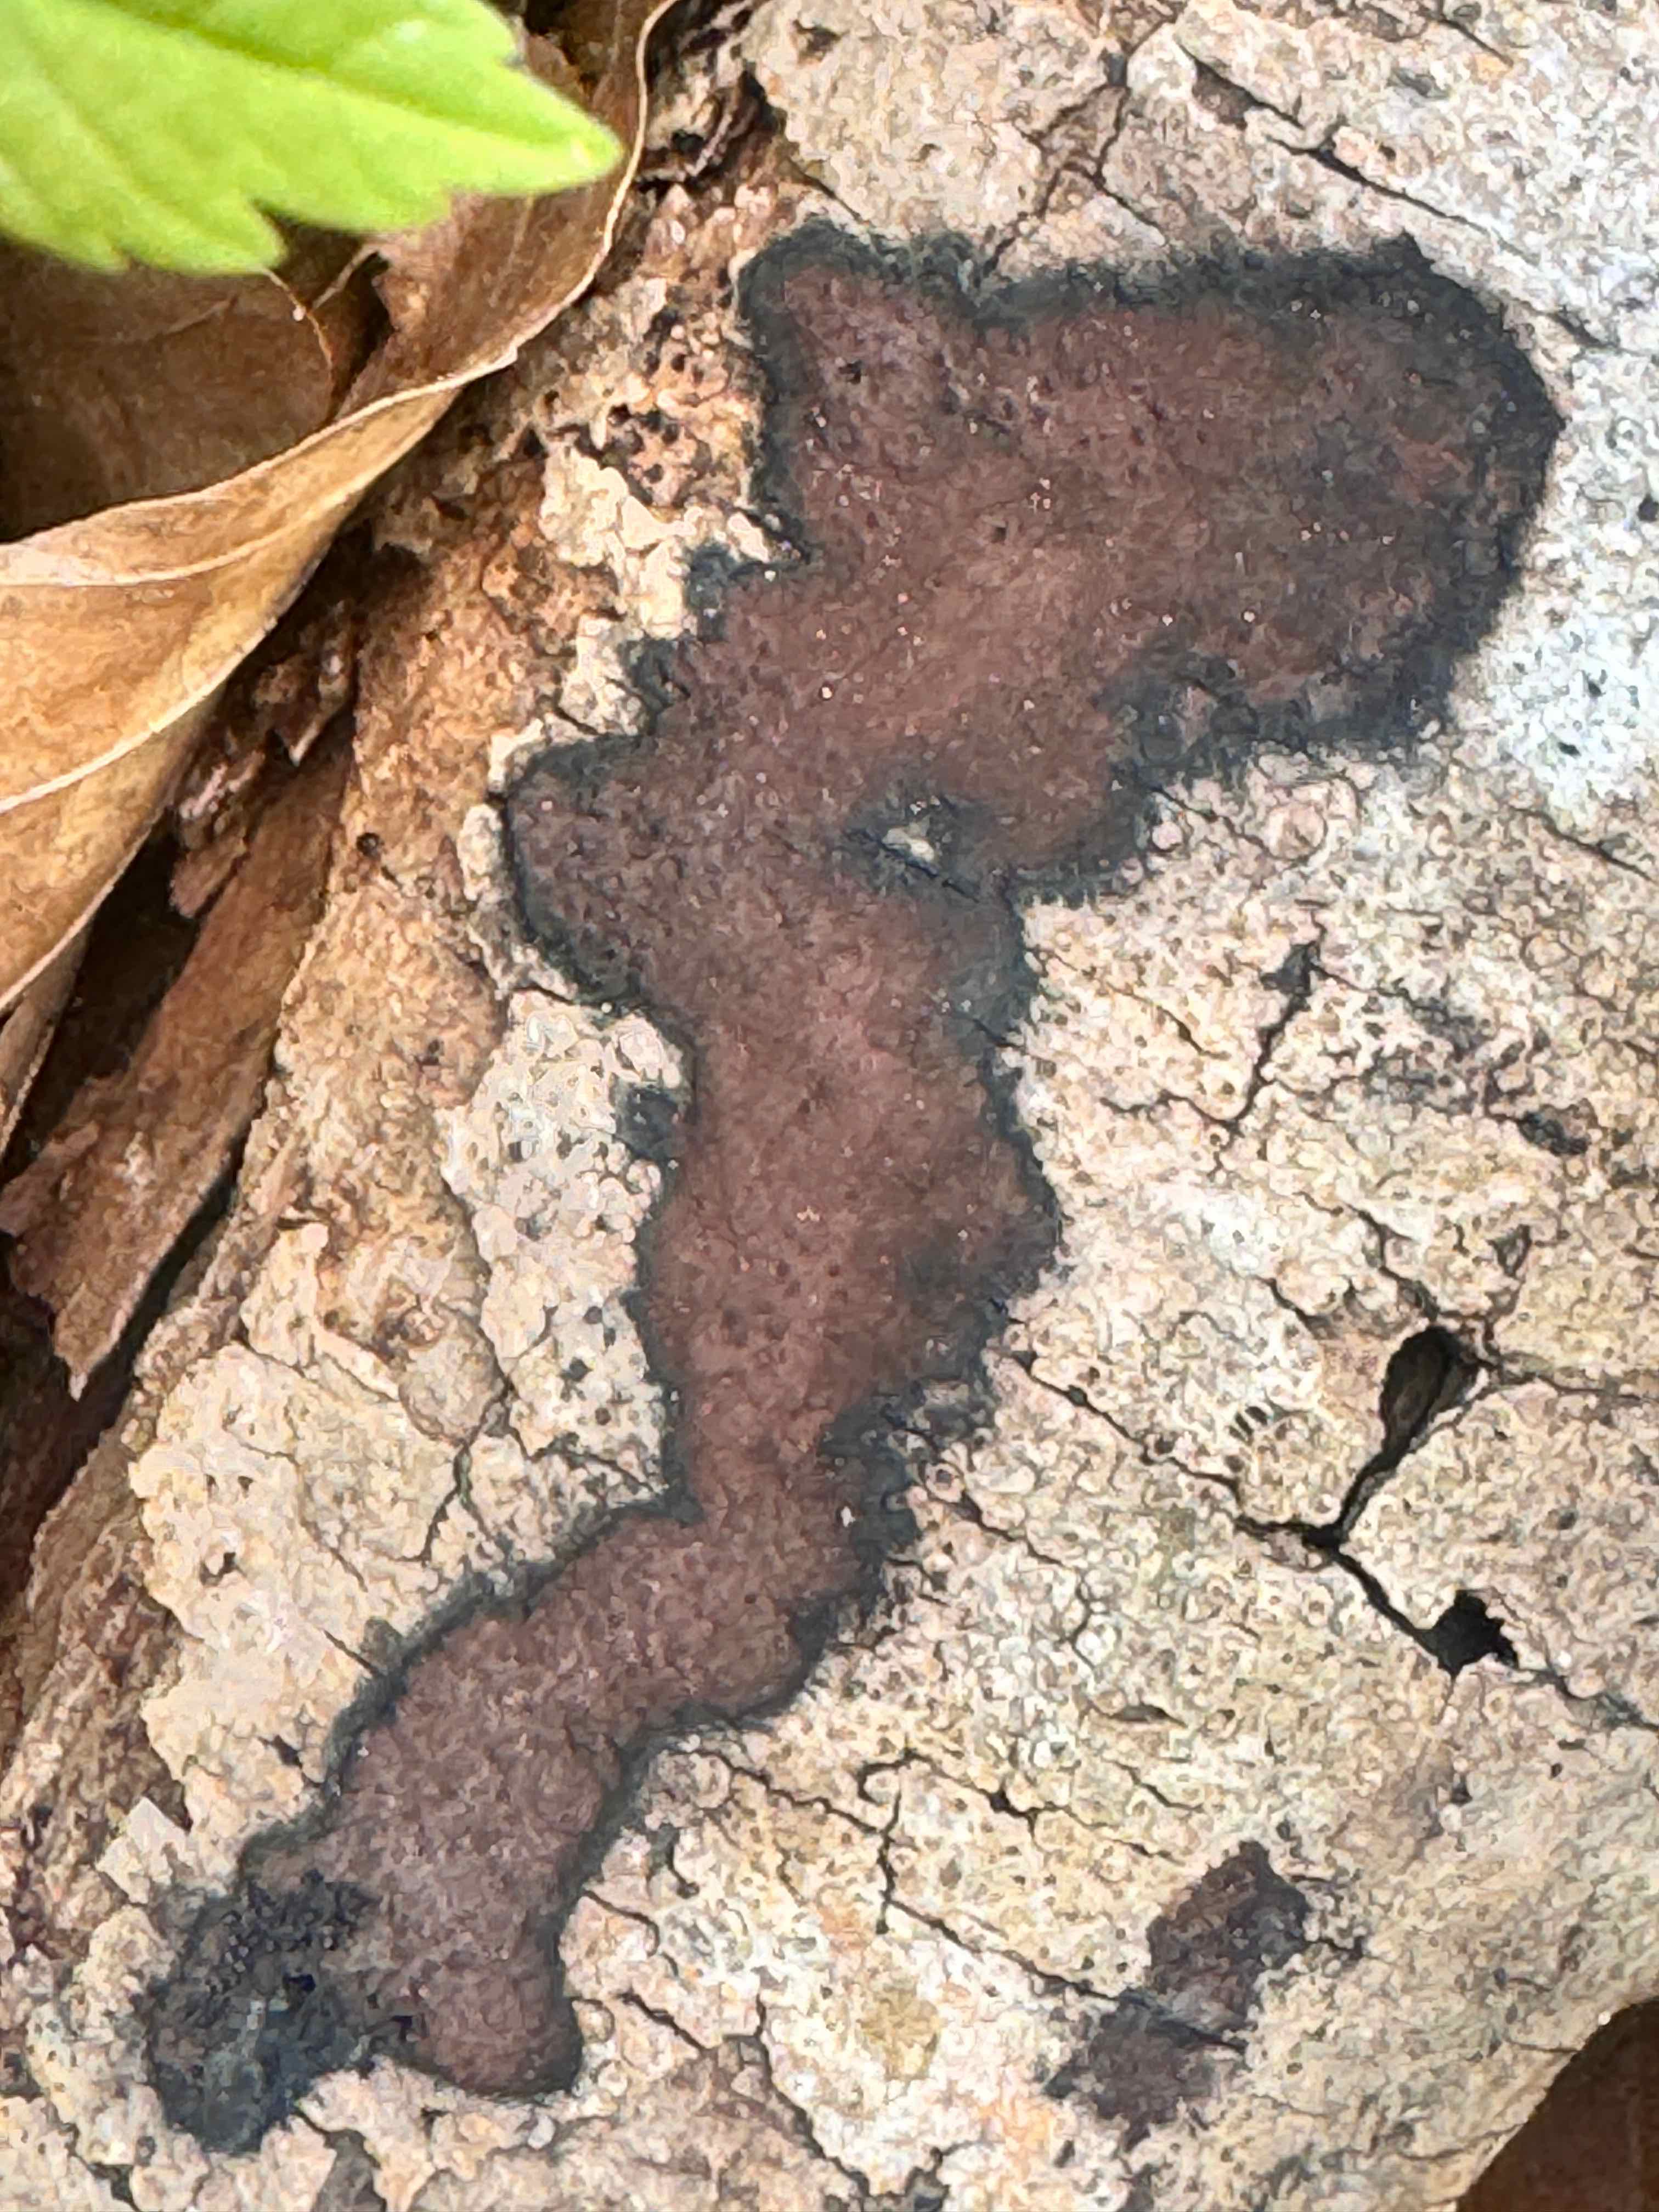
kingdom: Fungi
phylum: Ascomycota
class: Sordariomycetes
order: Xylariales
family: Hypoxylaceae
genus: Hypoxylon
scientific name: Hypoxylon petriniae
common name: nedsænket kulbær
